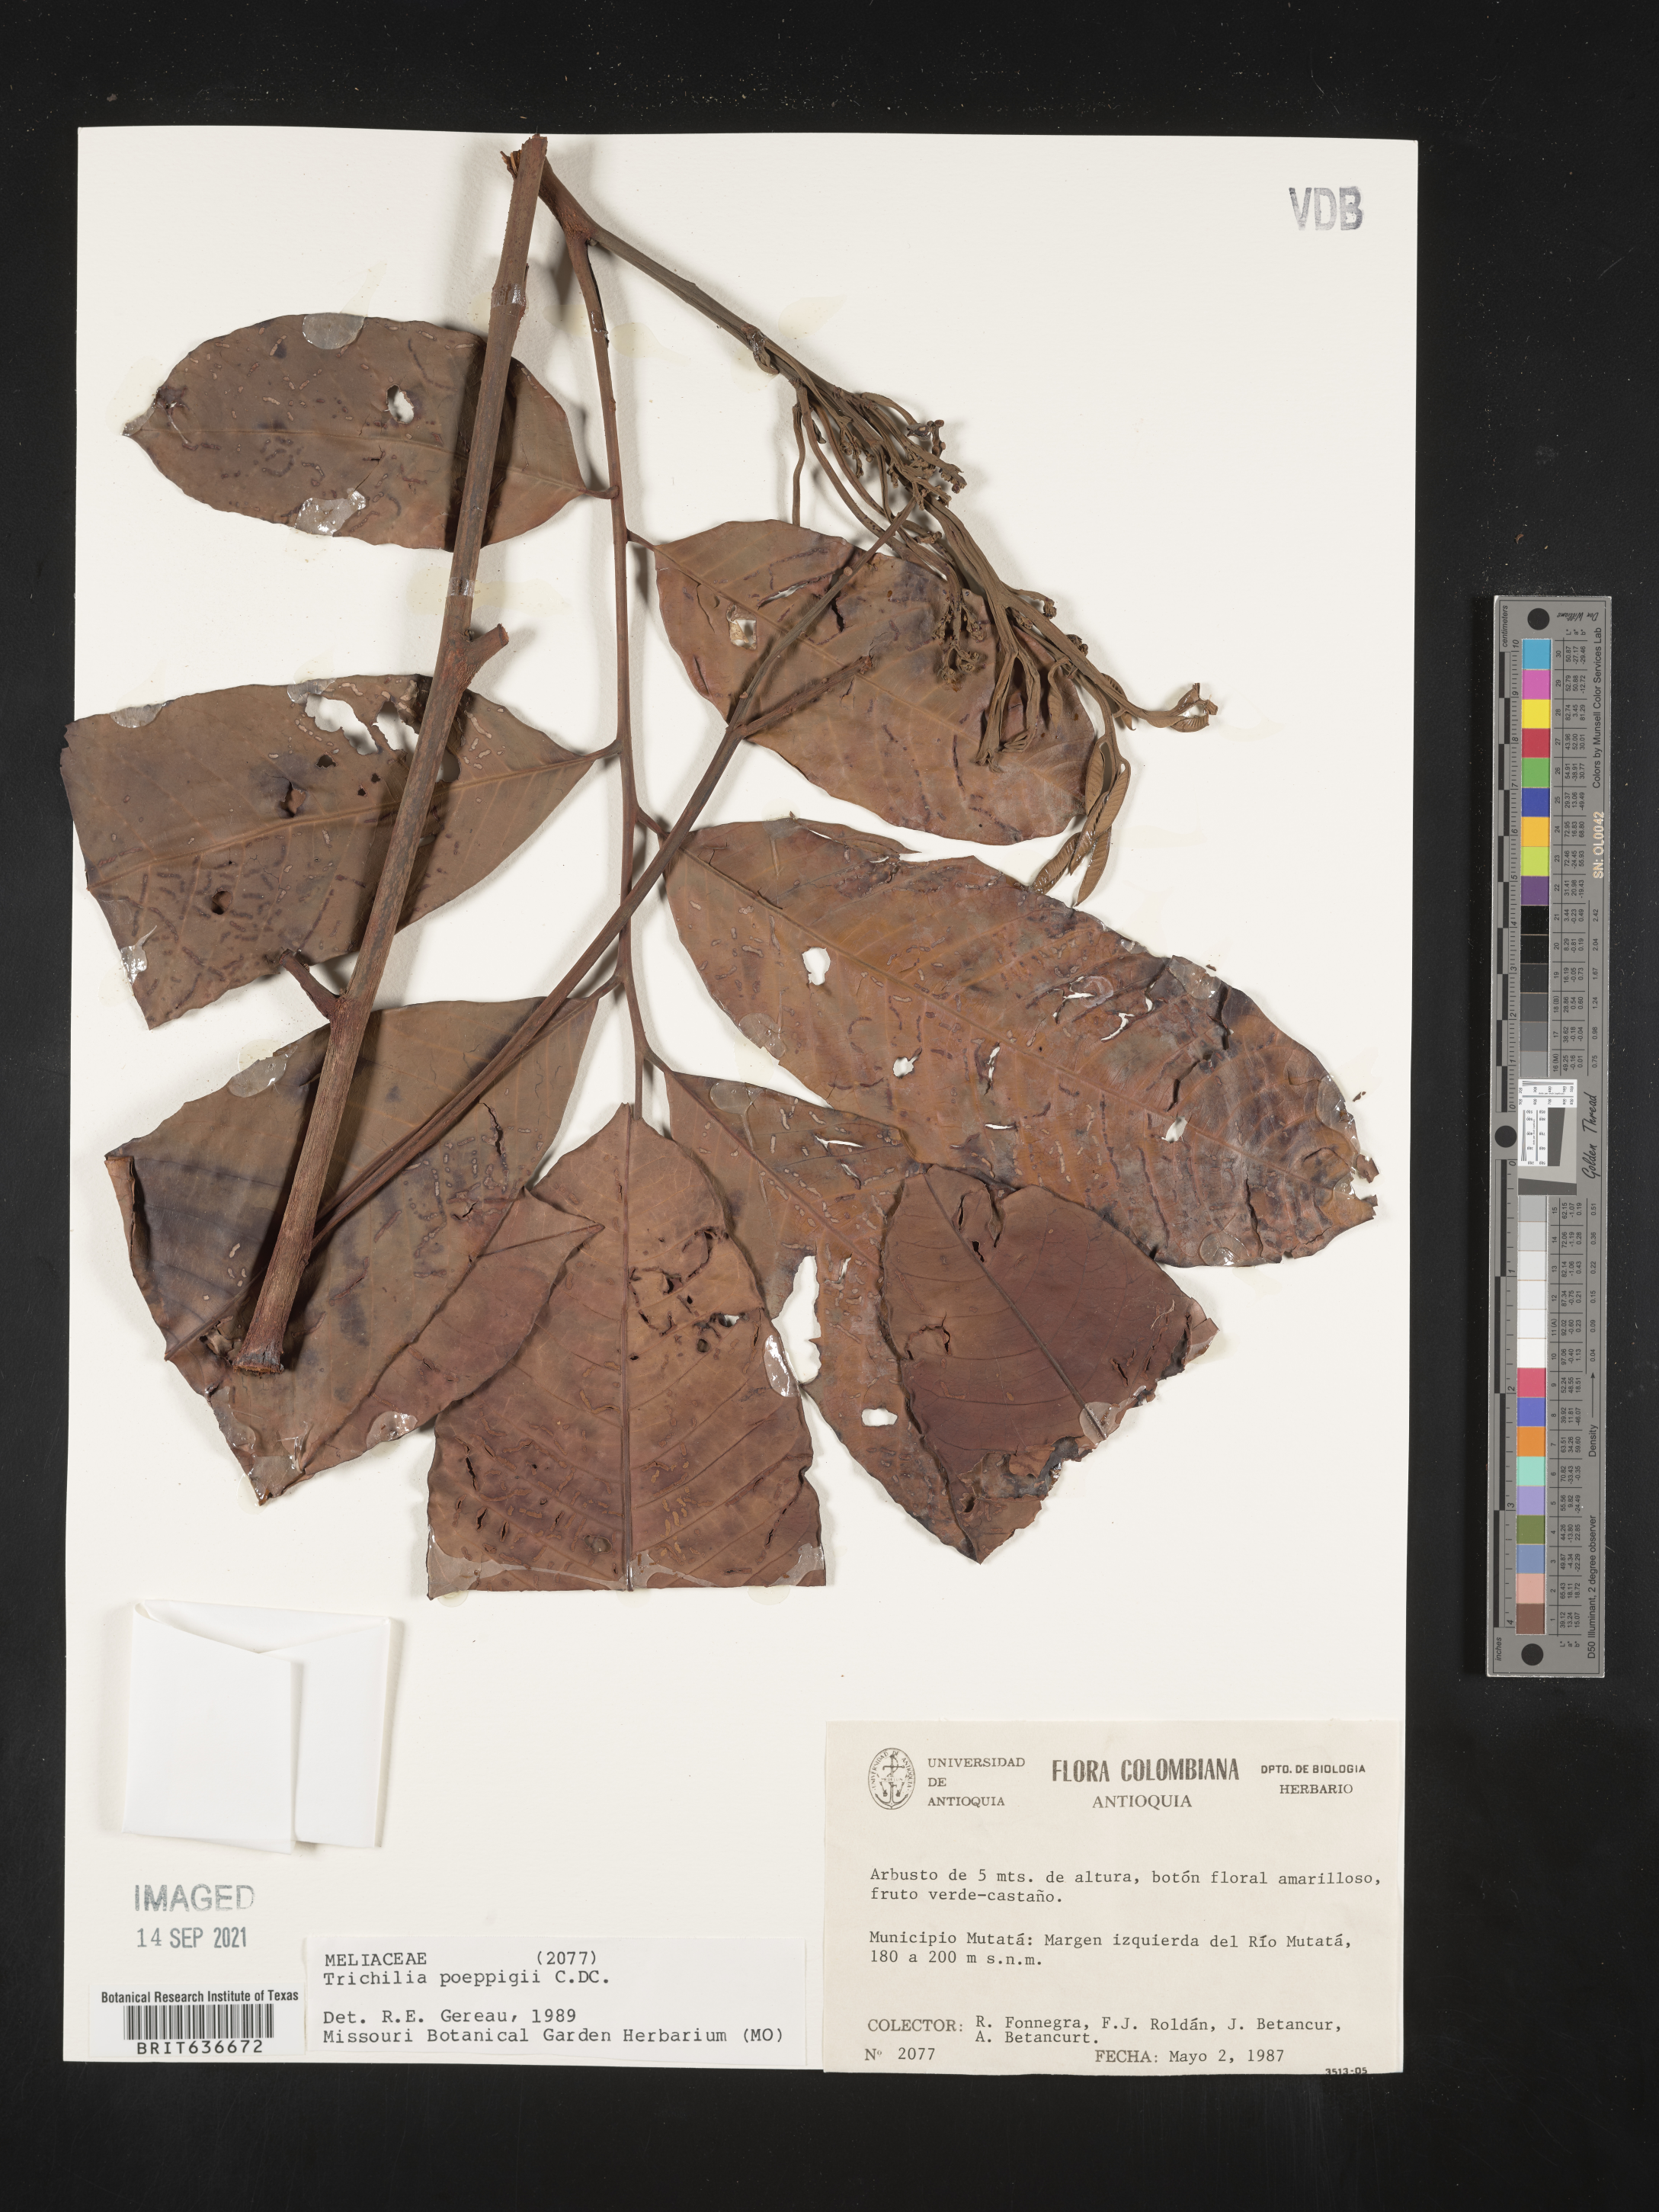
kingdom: Plantae
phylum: Tracheophyta
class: Magnoliopsida
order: Sapindales
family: Meliaceae
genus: Trichilia
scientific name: Trichilia
